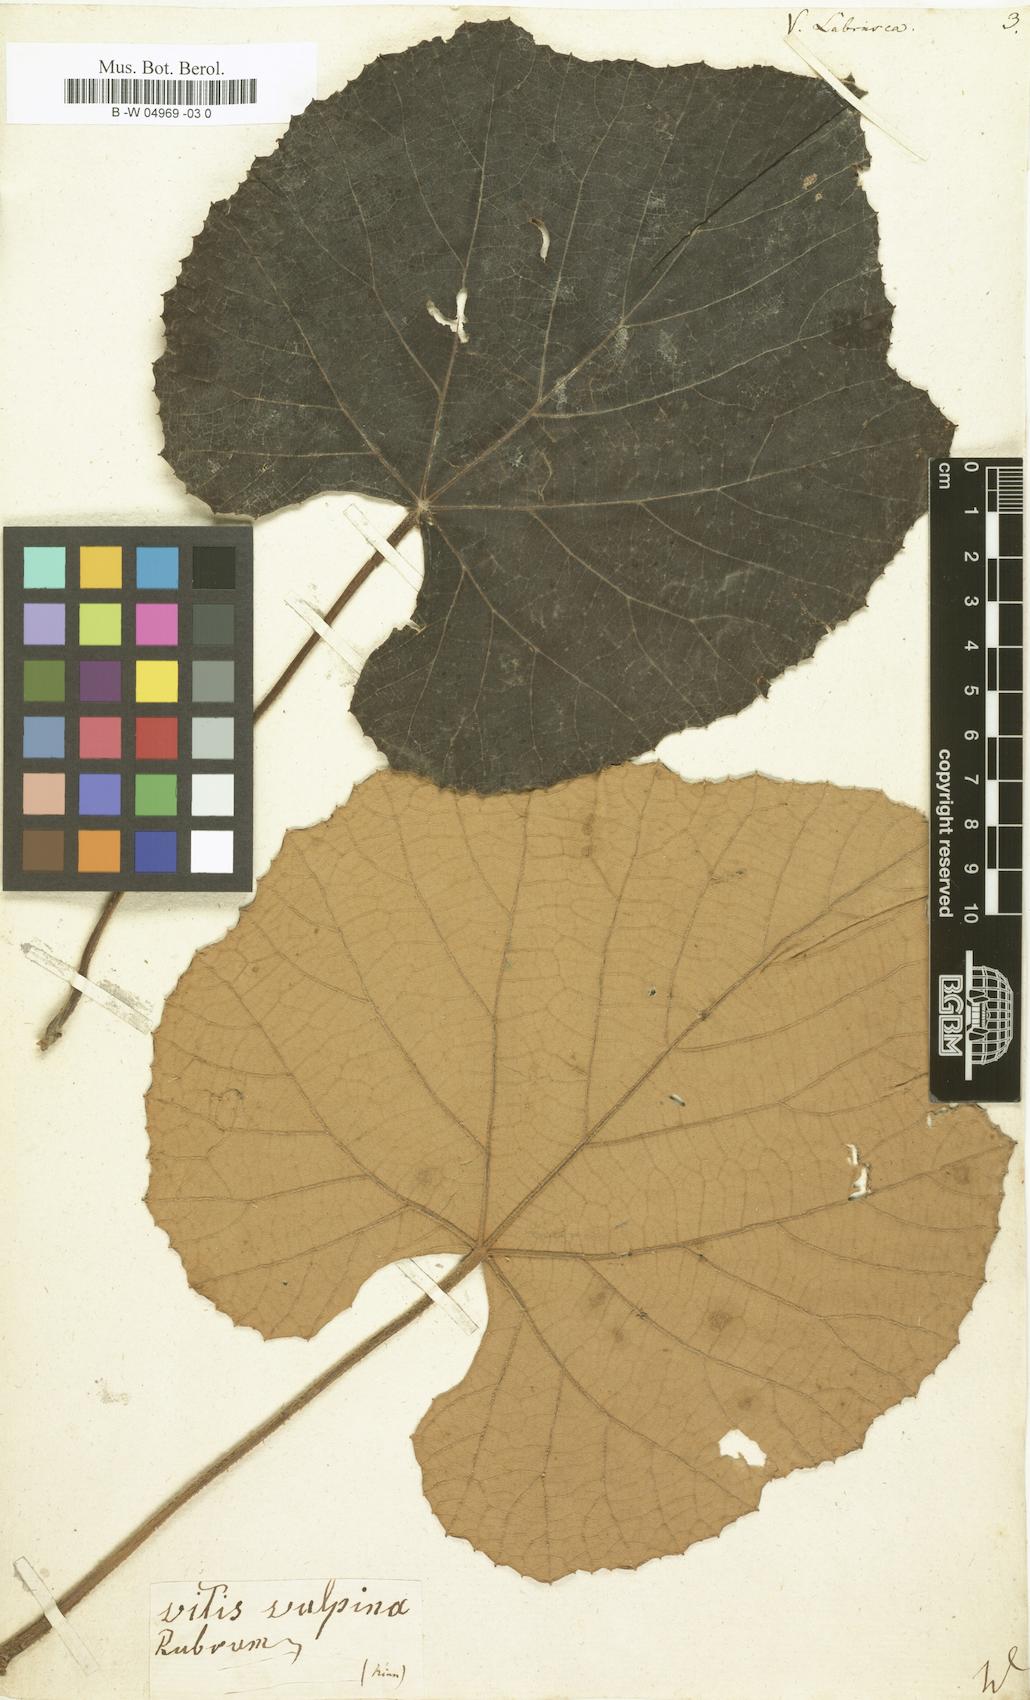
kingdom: Plantae
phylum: Tracheophyta
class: Magnoliopsida
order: Vitales
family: Vitaceae
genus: Vitis
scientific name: Vitis labrusca
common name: Concord grape
